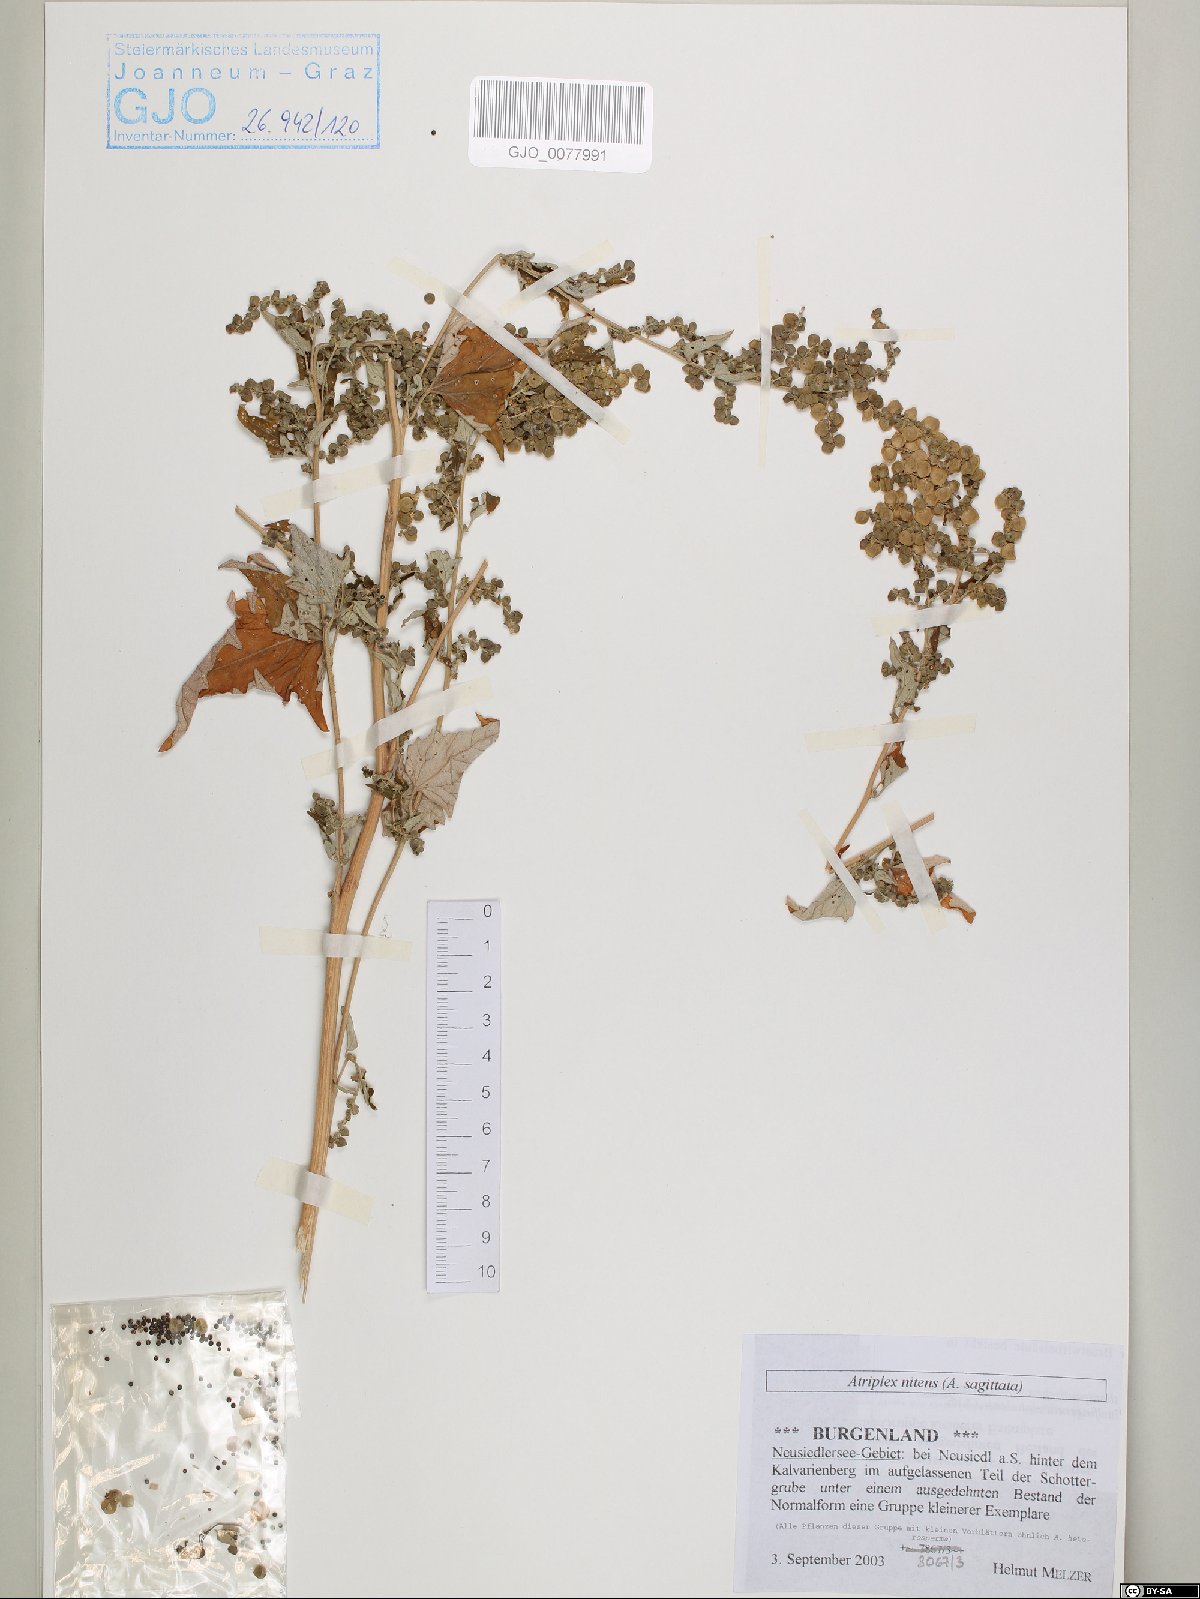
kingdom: Plantae
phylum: Tracheophyta
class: Magnoliopsida
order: Caryophyllales
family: Amaranthaceae
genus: Atriplex
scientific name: Atriplex sagittata
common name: Purple orache
